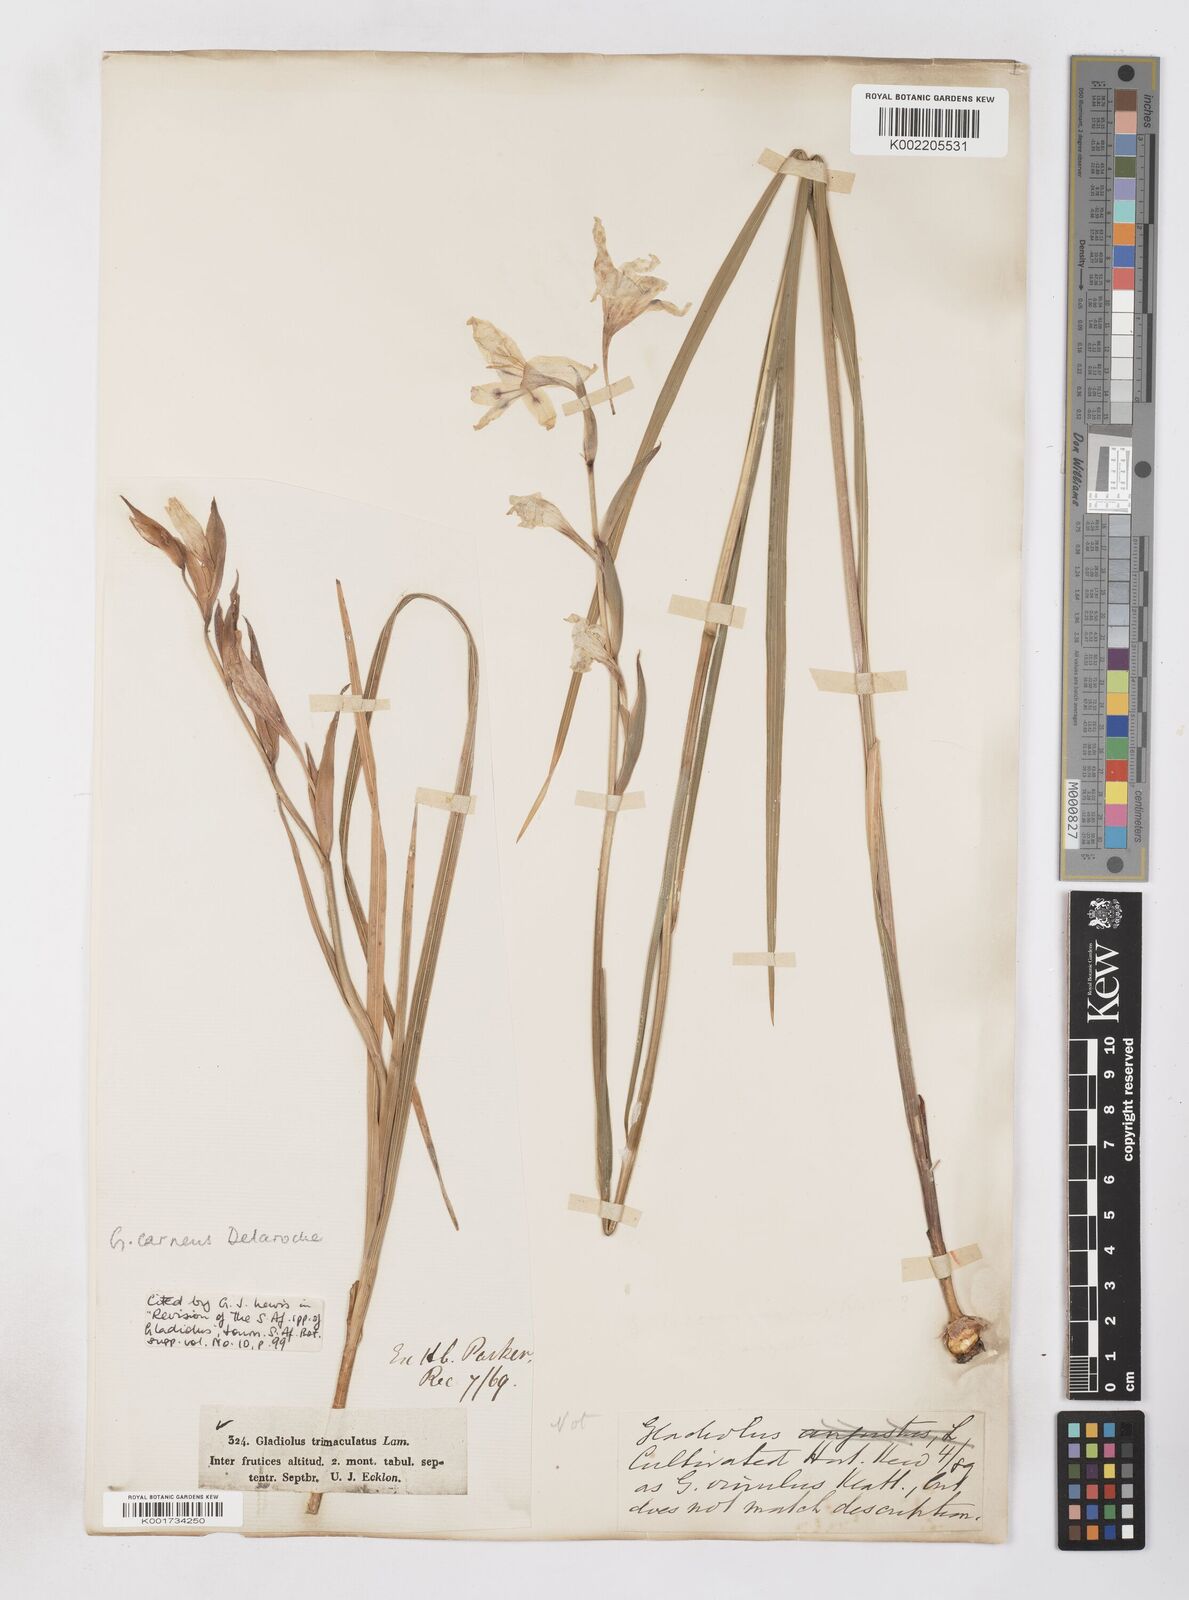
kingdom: Plantae
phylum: Tracheophyta
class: Liliopsida
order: Asparagales
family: Iridaceae
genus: Gladiolus
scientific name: Gladiolus carneus
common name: Painted-lady
